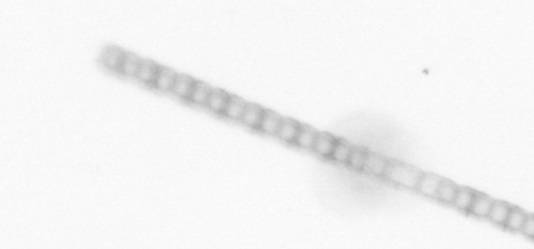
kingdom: Chromista
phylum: Ochrophyta
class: Bacillariophyceae
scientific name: Bacillariophyceae
